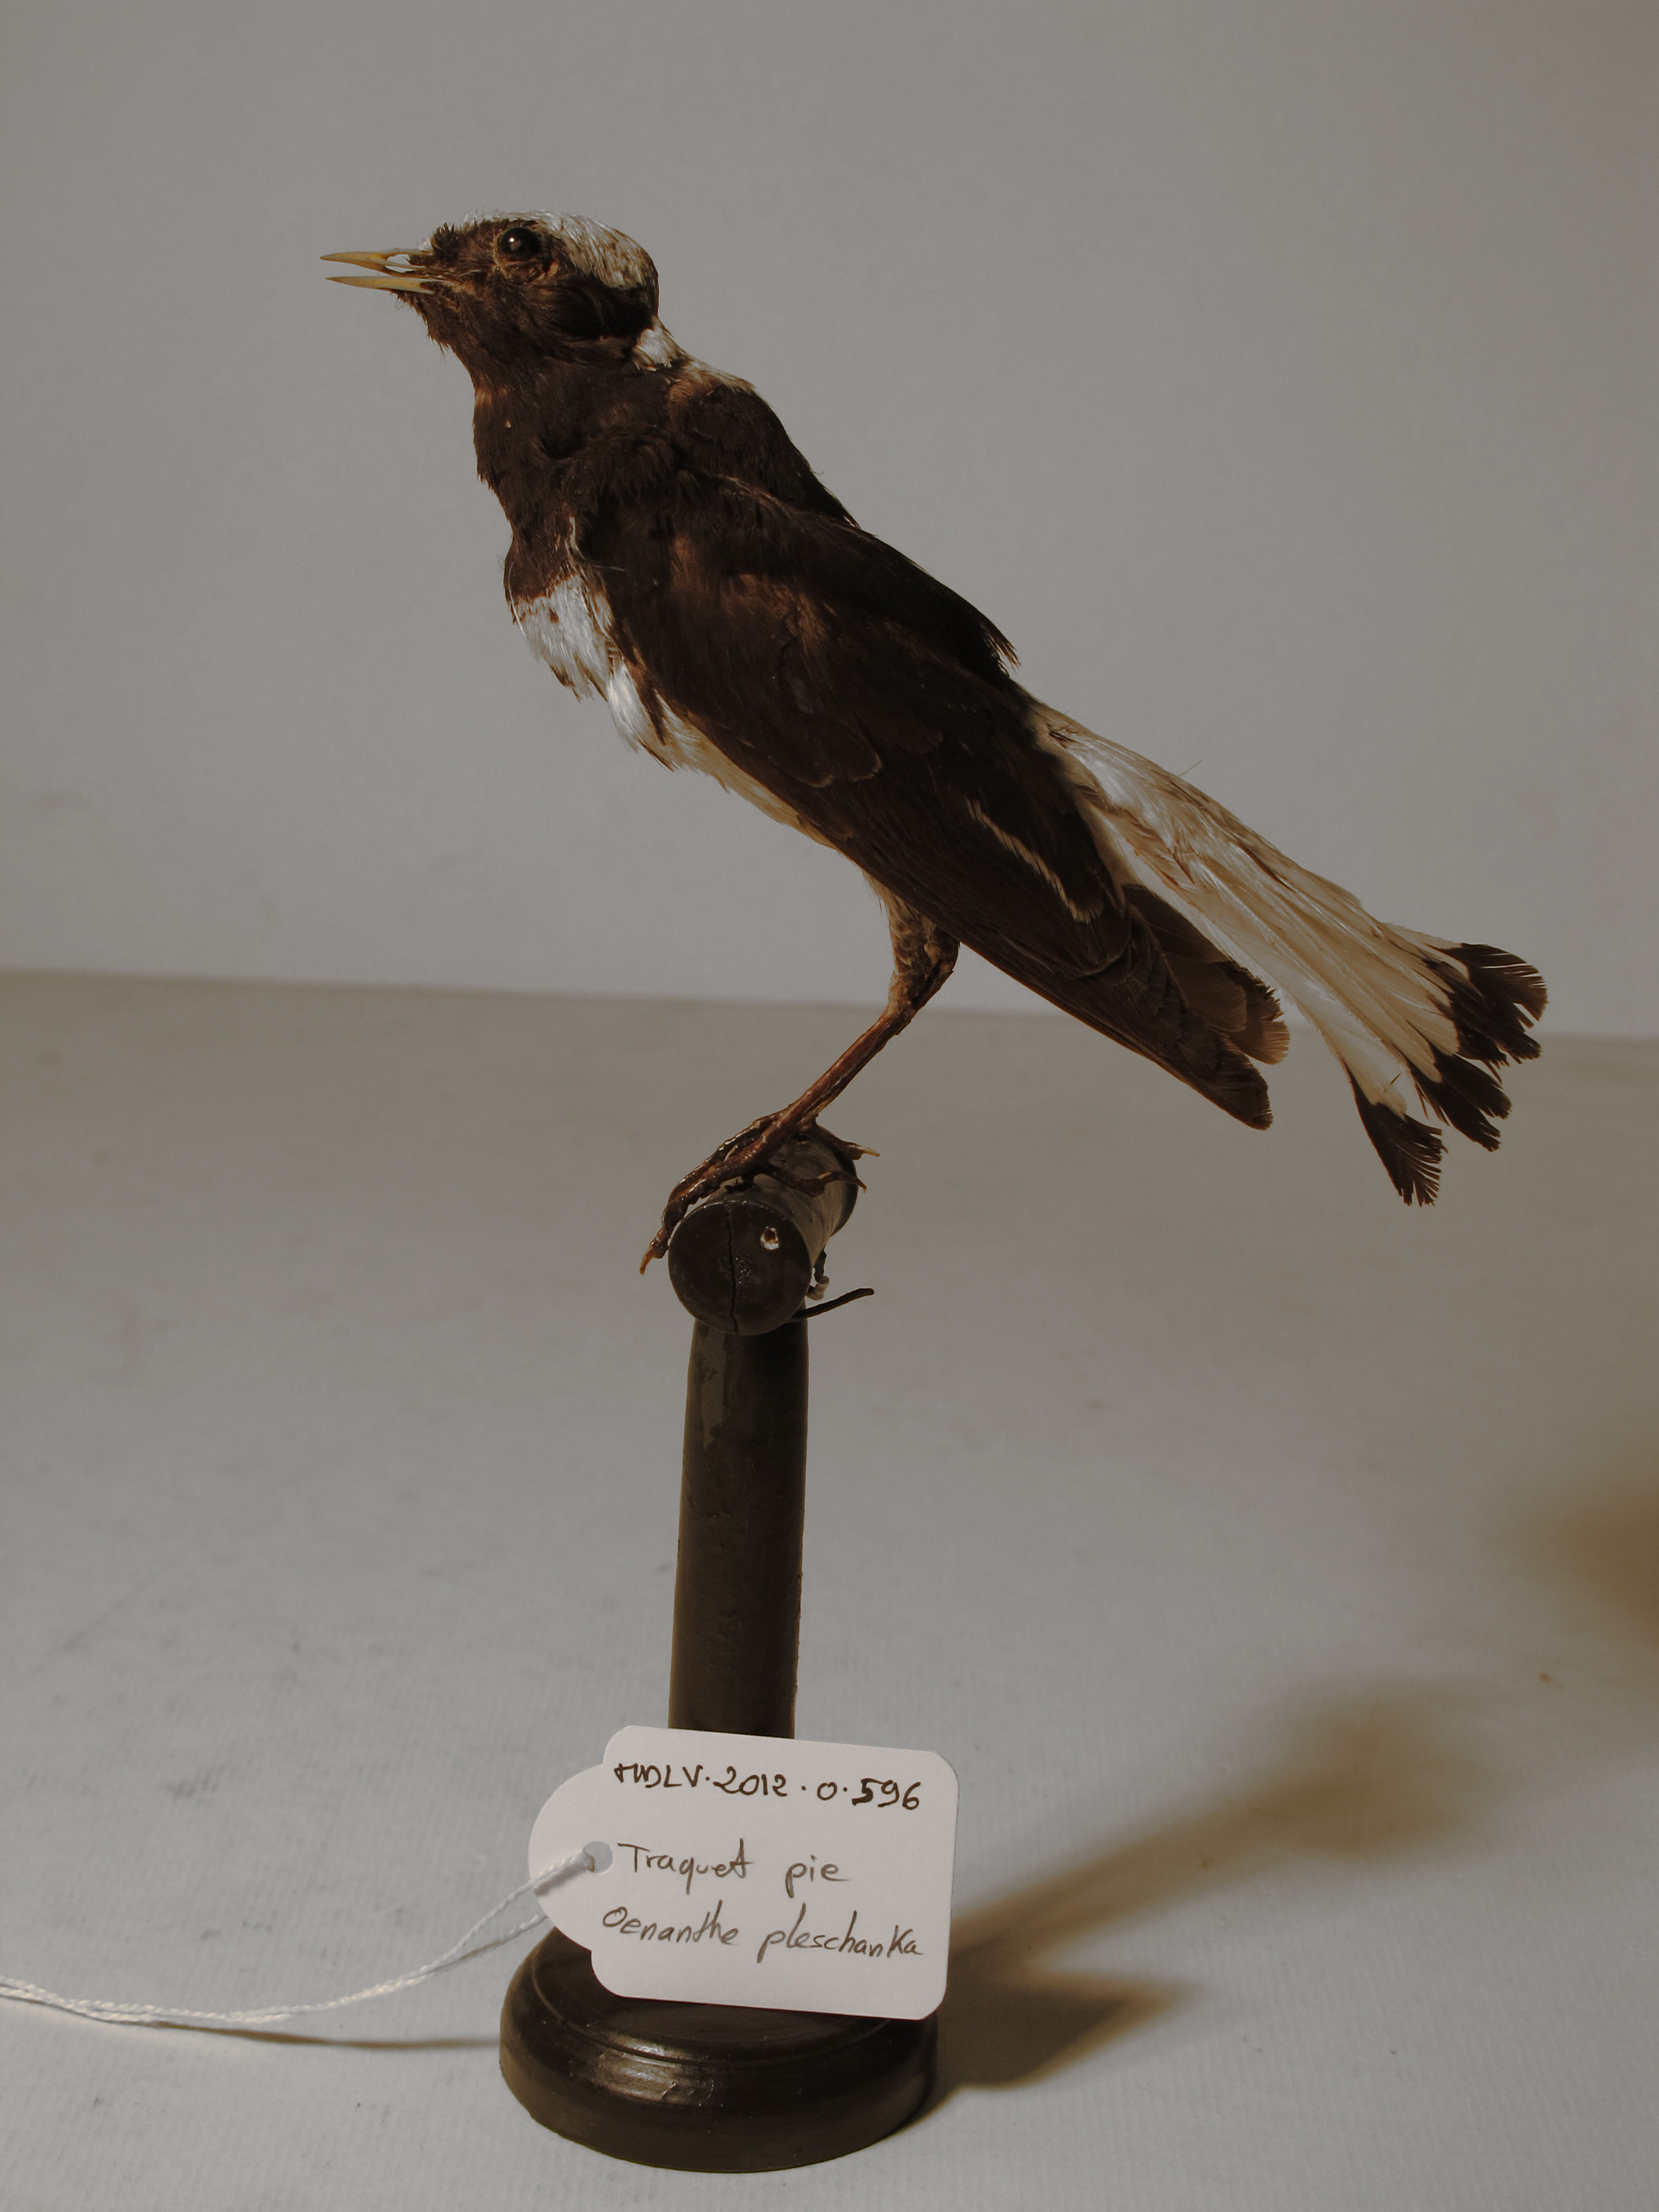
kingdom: Animalia
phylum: Chordata
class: Aves
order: Passeriformes
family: Muscicapidae
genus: Oenanthe
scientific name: Oenanthe pleschanka
